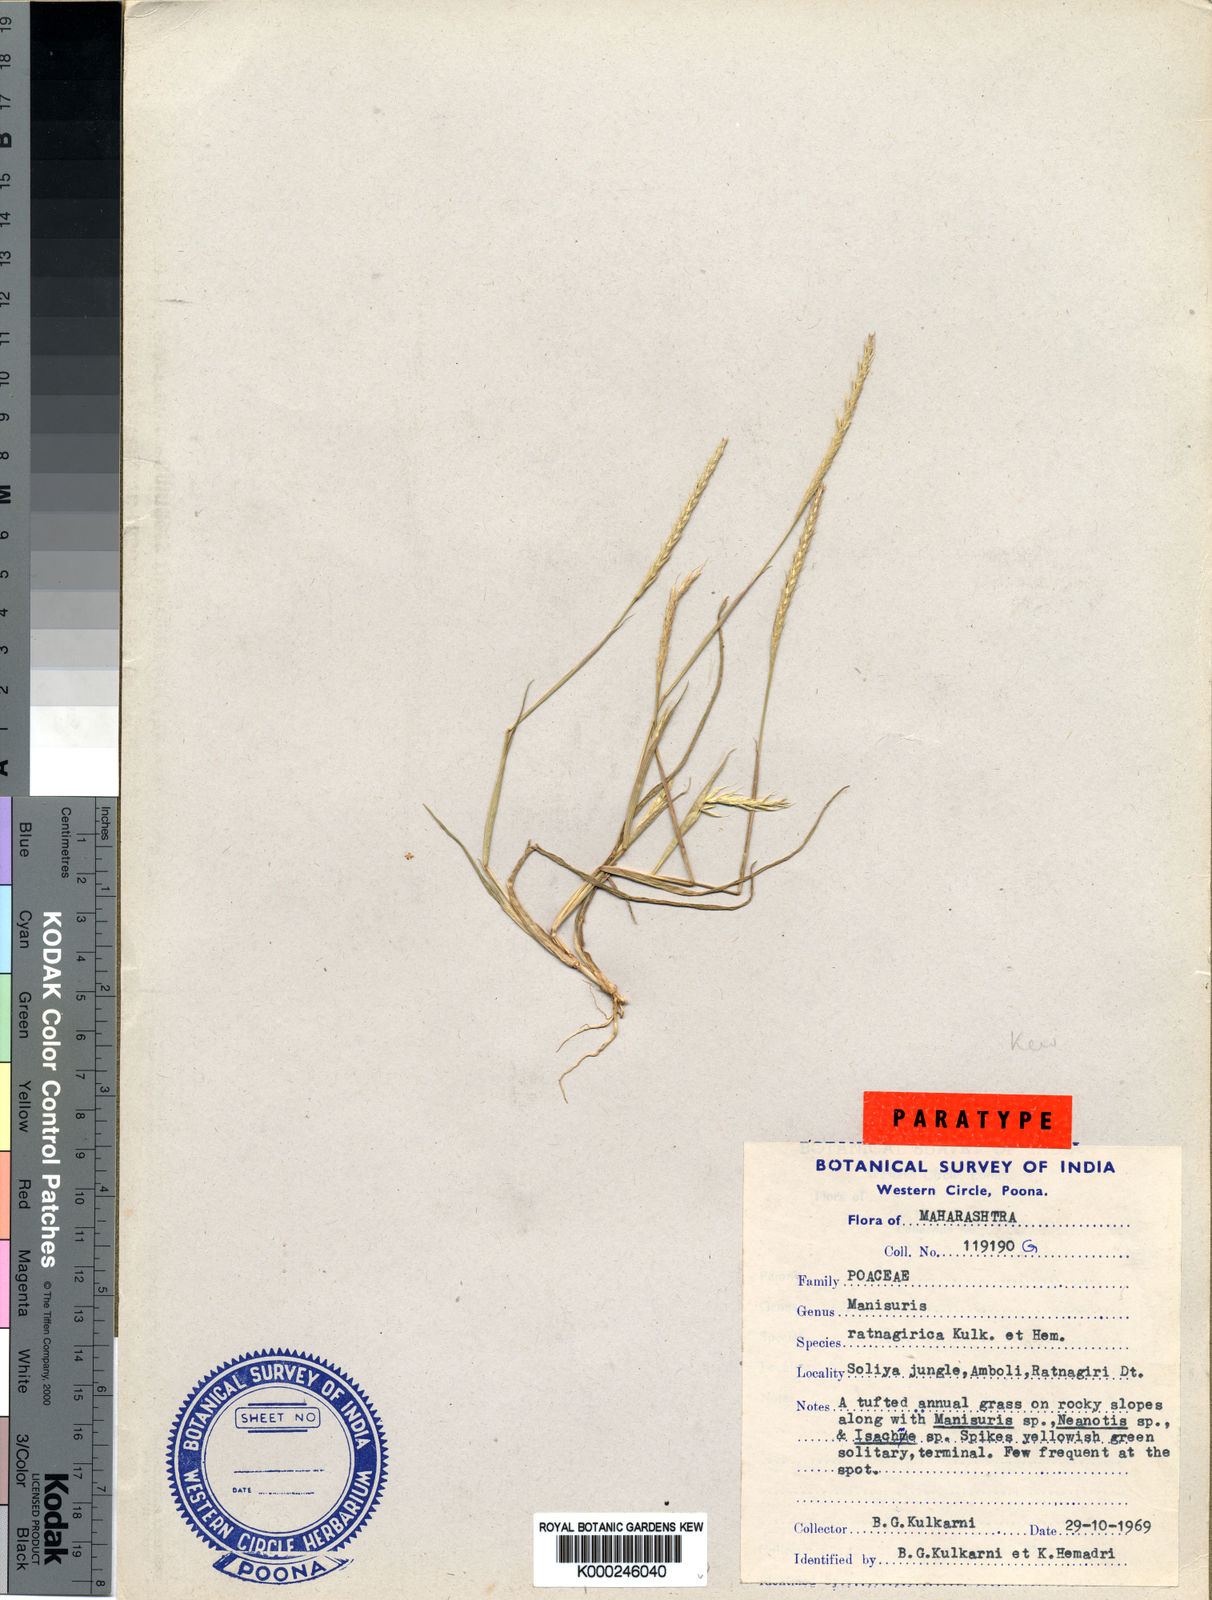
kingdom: Plantae
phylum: Tracheophyta
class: Liliopsida
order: Poales
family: Poaceae
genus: Glyphochloa
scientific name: Glyphochloa ratnagirica
